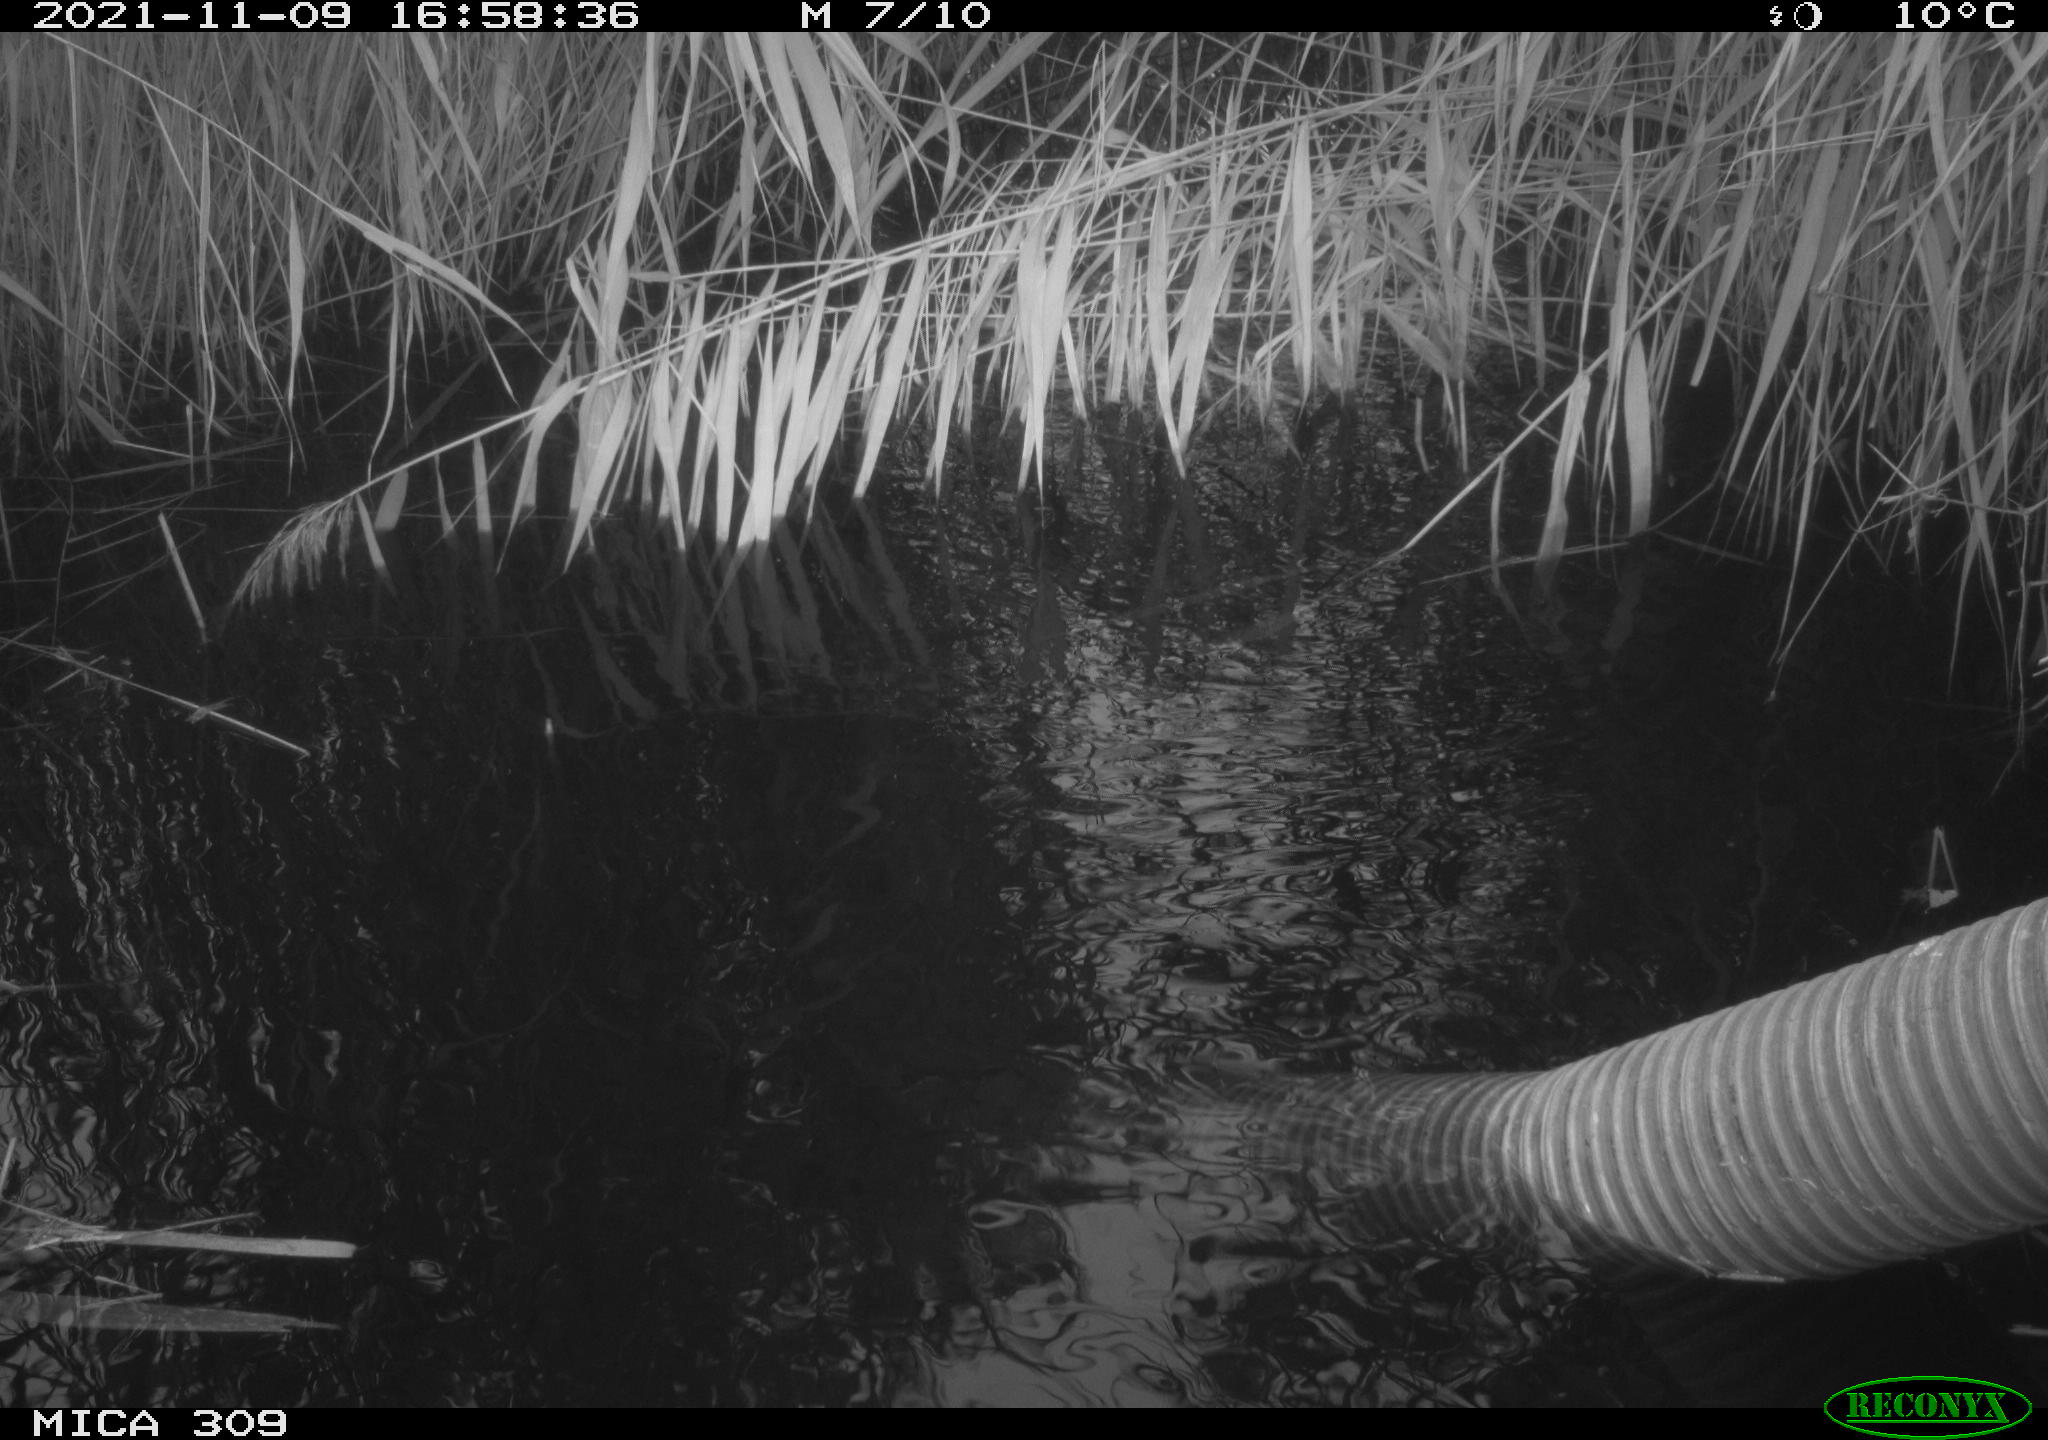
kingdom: Animalia
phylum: Chordata
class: Aves
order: Gruiformes
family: Rallidae
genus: Rallus
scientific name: Rallus aquaticus
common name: Water rail
